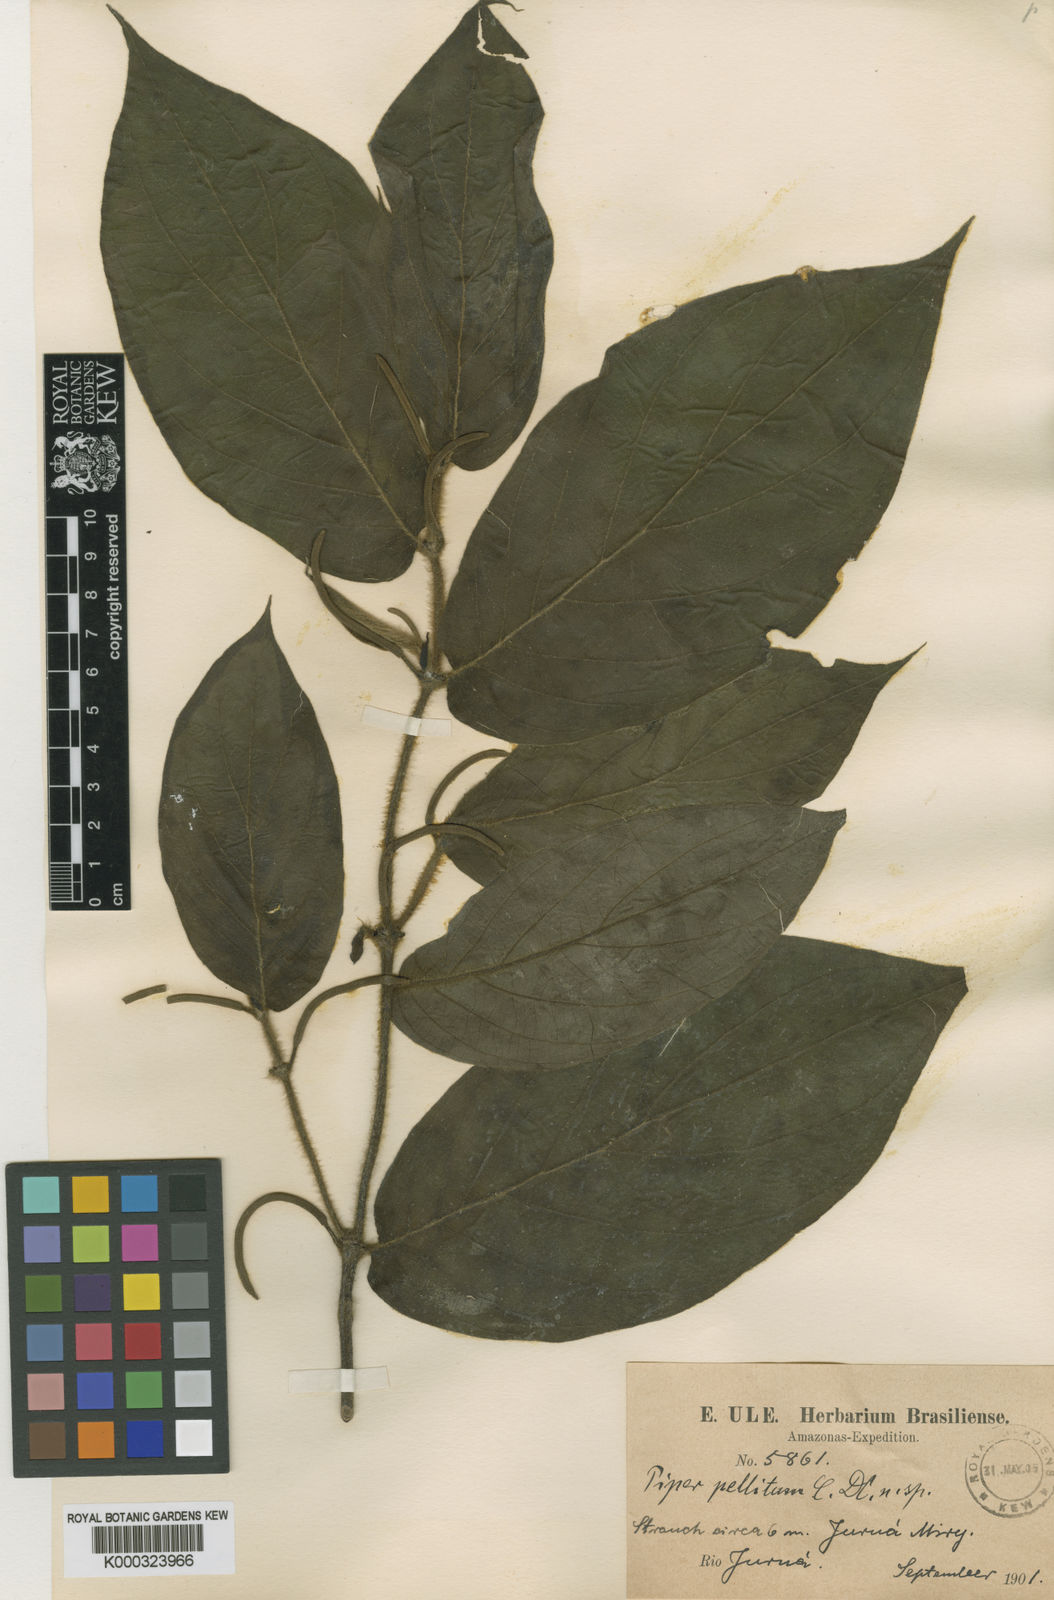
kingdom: Plantae
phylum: Tracheophyta
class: Magnoliopsida
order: Piperales
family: Piperaceae
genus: Piper
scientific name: Piper pellitum
